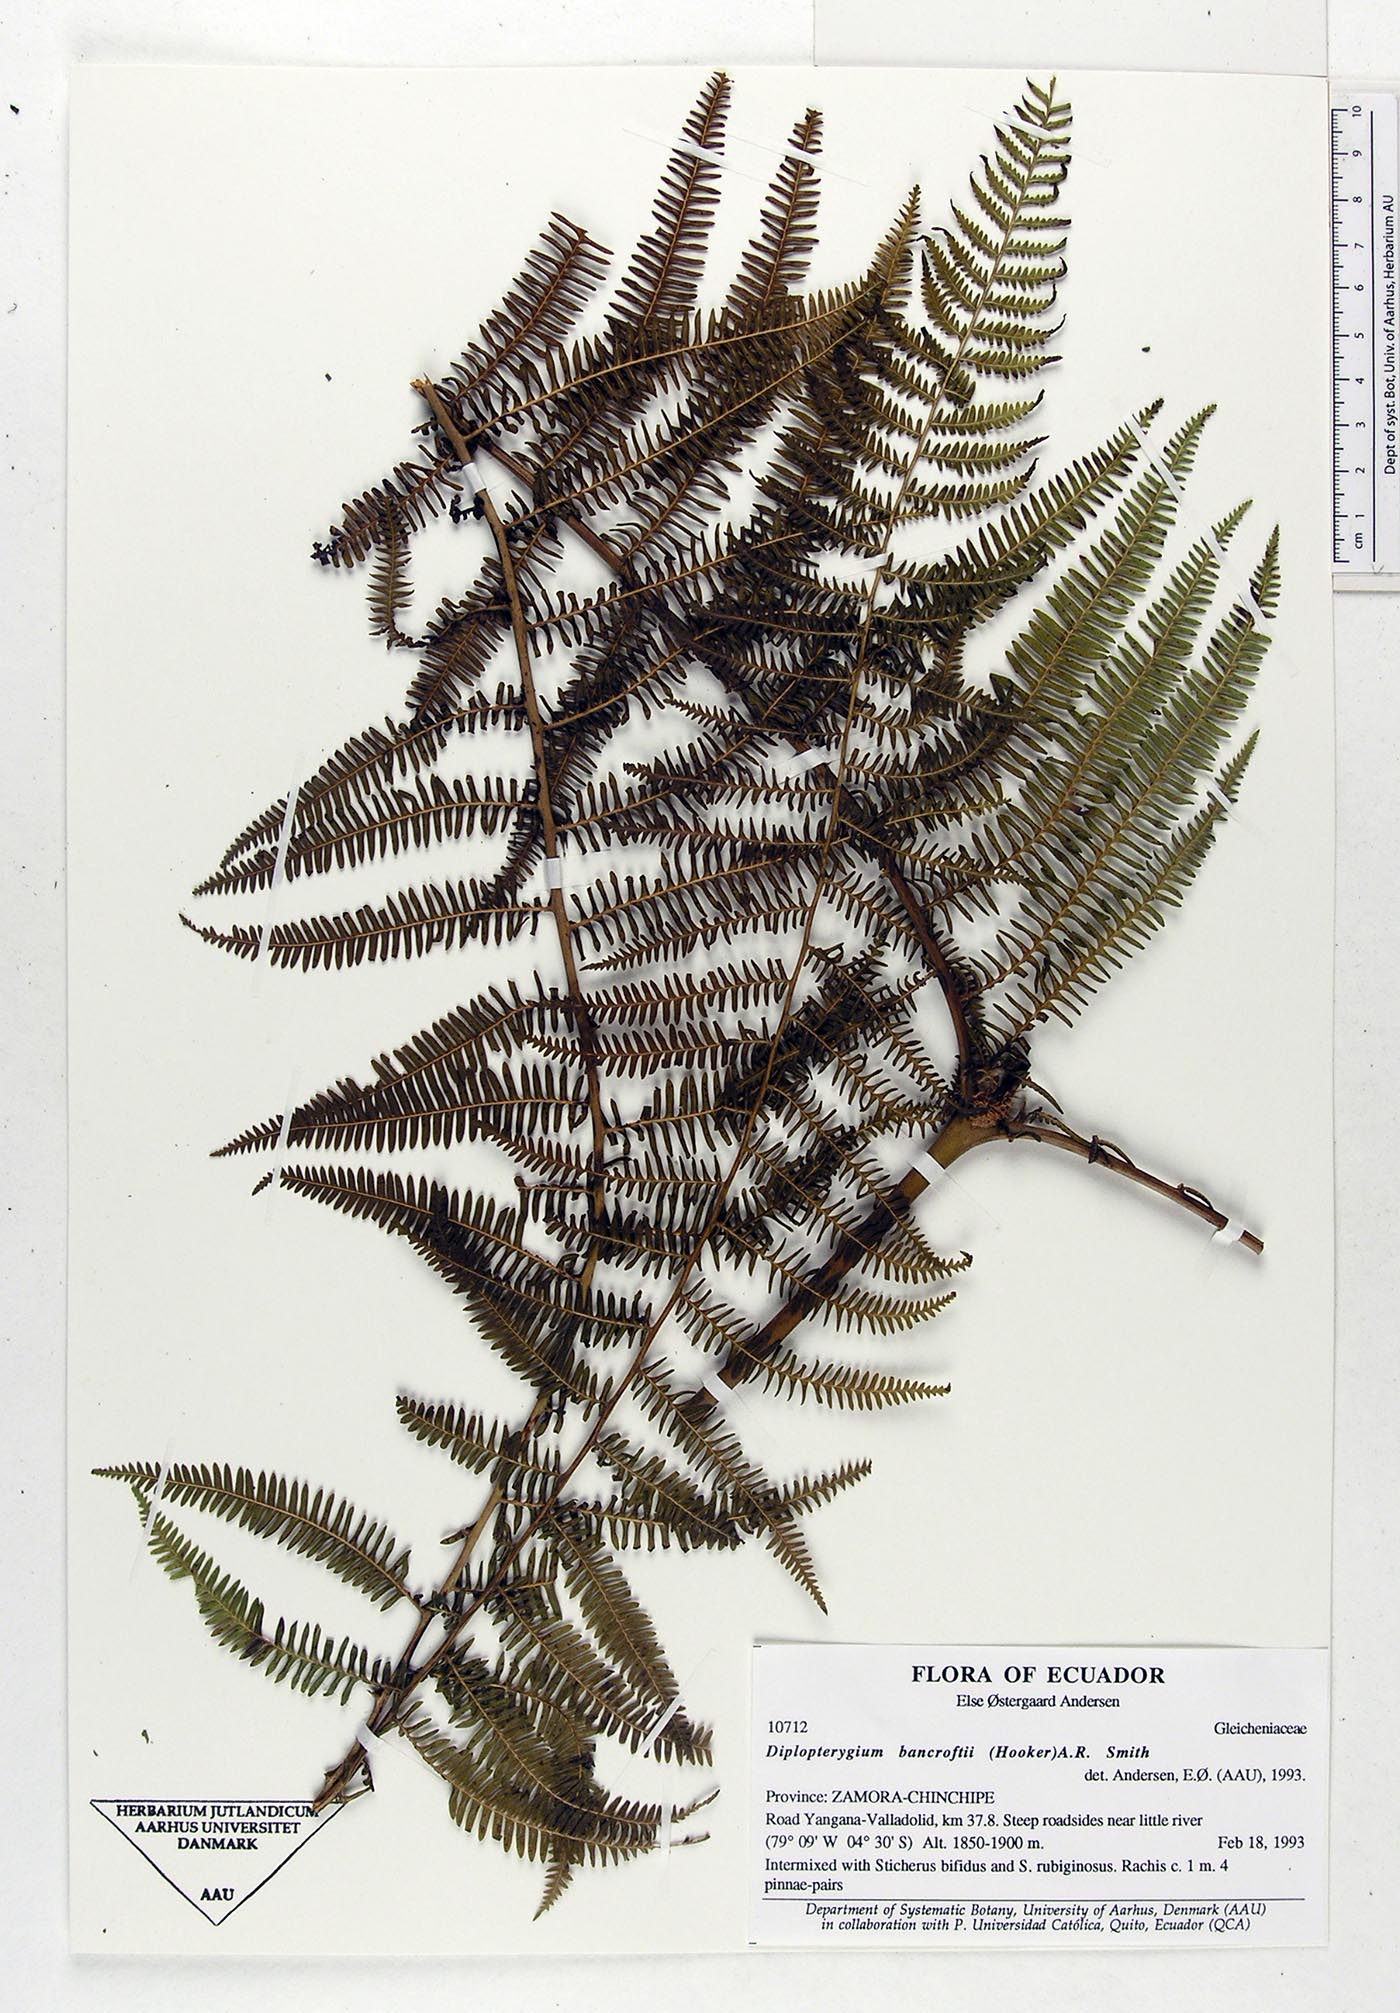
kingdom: Plantae
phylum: Tracheophyta
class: Polypodiopsida
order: Gleicheniales
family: Gleicheniaceae
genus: Diplopterygium
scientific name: Diplopterygium bancroftii
